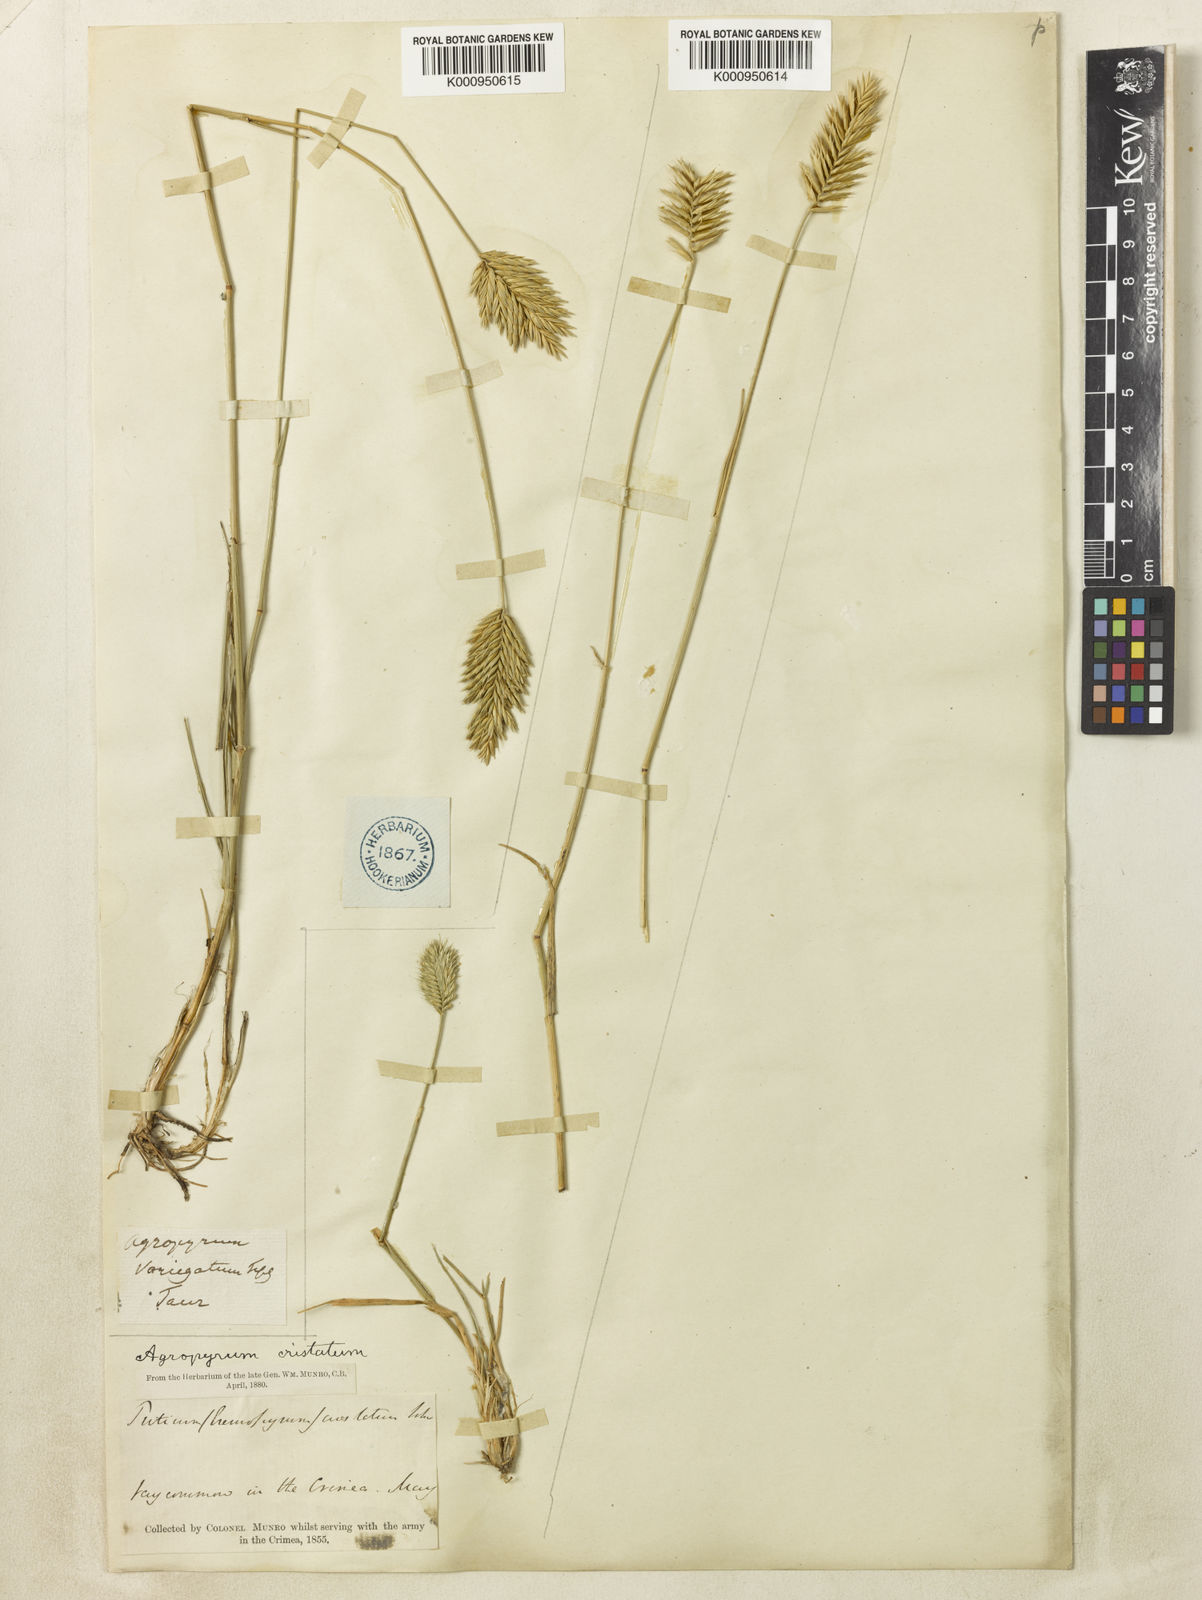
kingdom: Plantae
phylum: Tracheophyta
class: Liliopsida
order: Poales
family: Poaceae
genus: Agropyron
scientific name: Agropyron cristatum
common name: Crested wheatgrass
